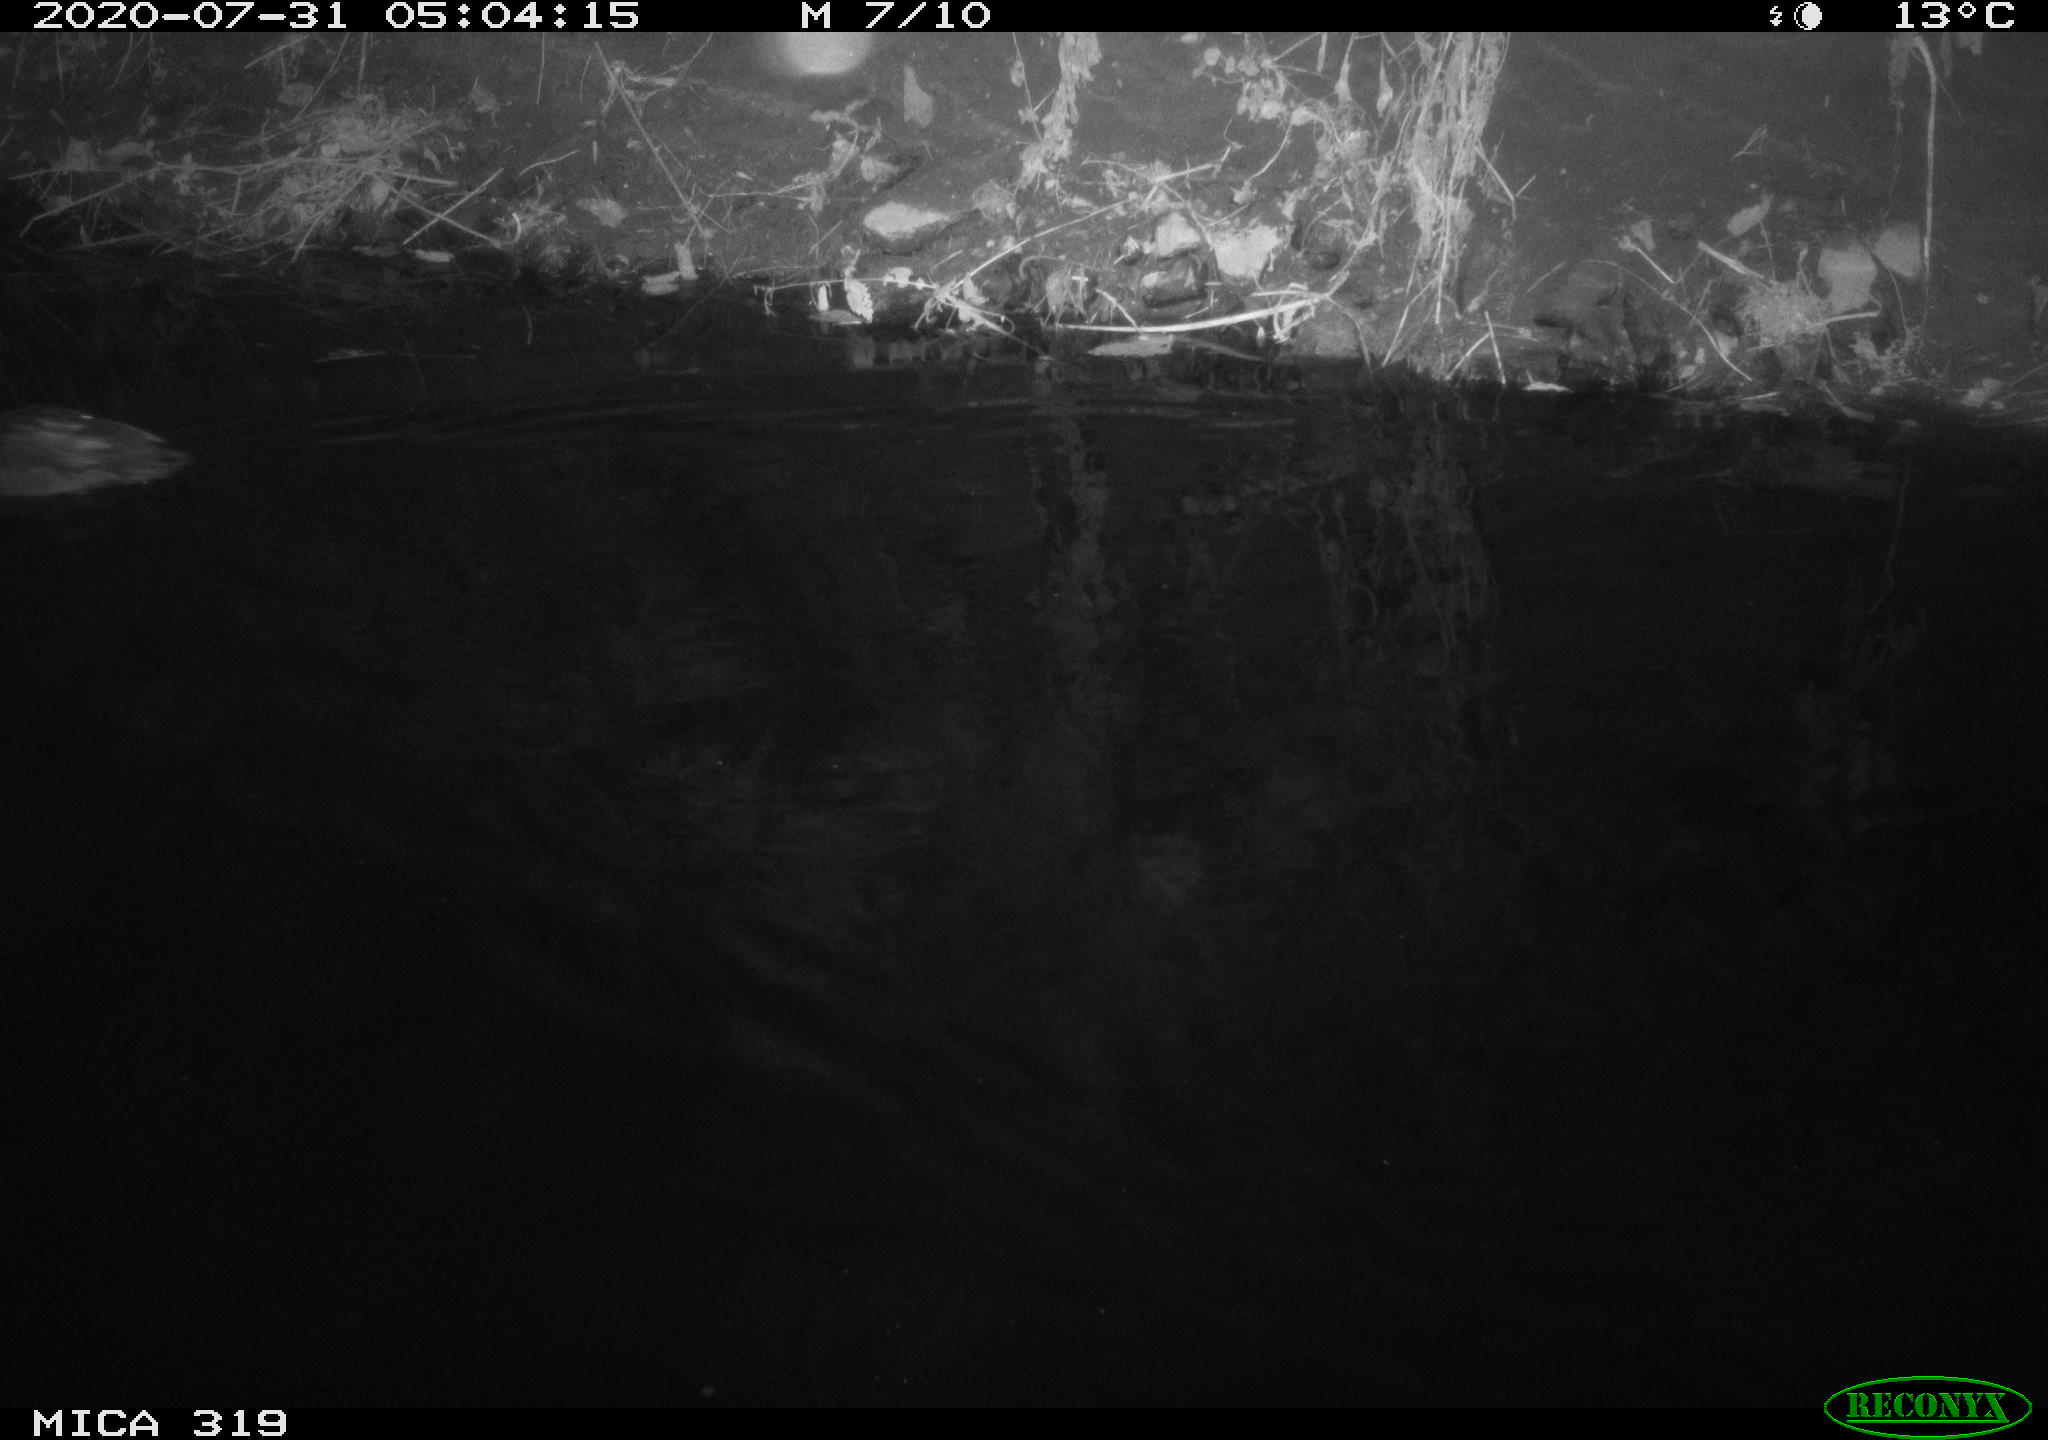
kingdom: Animalia
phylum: Chordata
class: Aves
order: Anseriformes
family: Anatidae
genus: Anas
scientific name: Anas platyrhynchos
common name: Mallard
